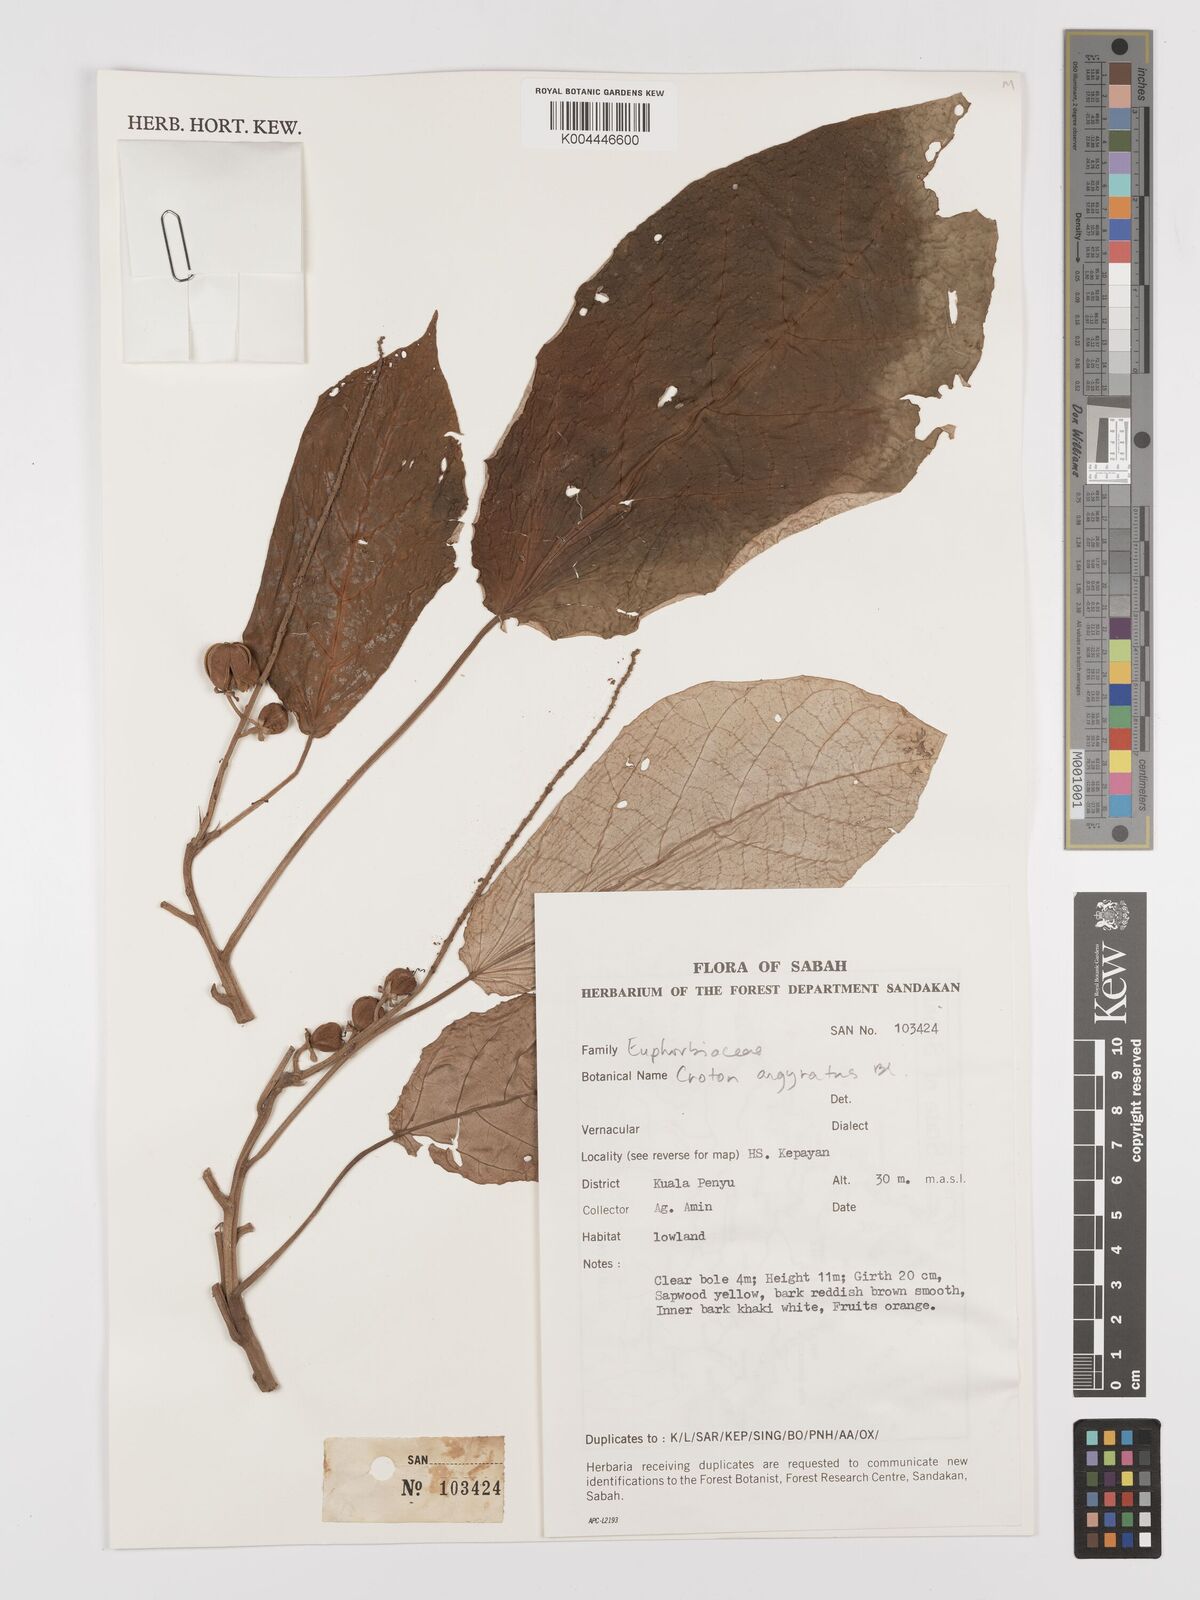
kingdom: Plantae
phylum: Tracheophyta
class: Magnoliopsida
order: Malpighiales
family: Euphorbiaceae
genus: Croton
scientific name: Croton argyratus
